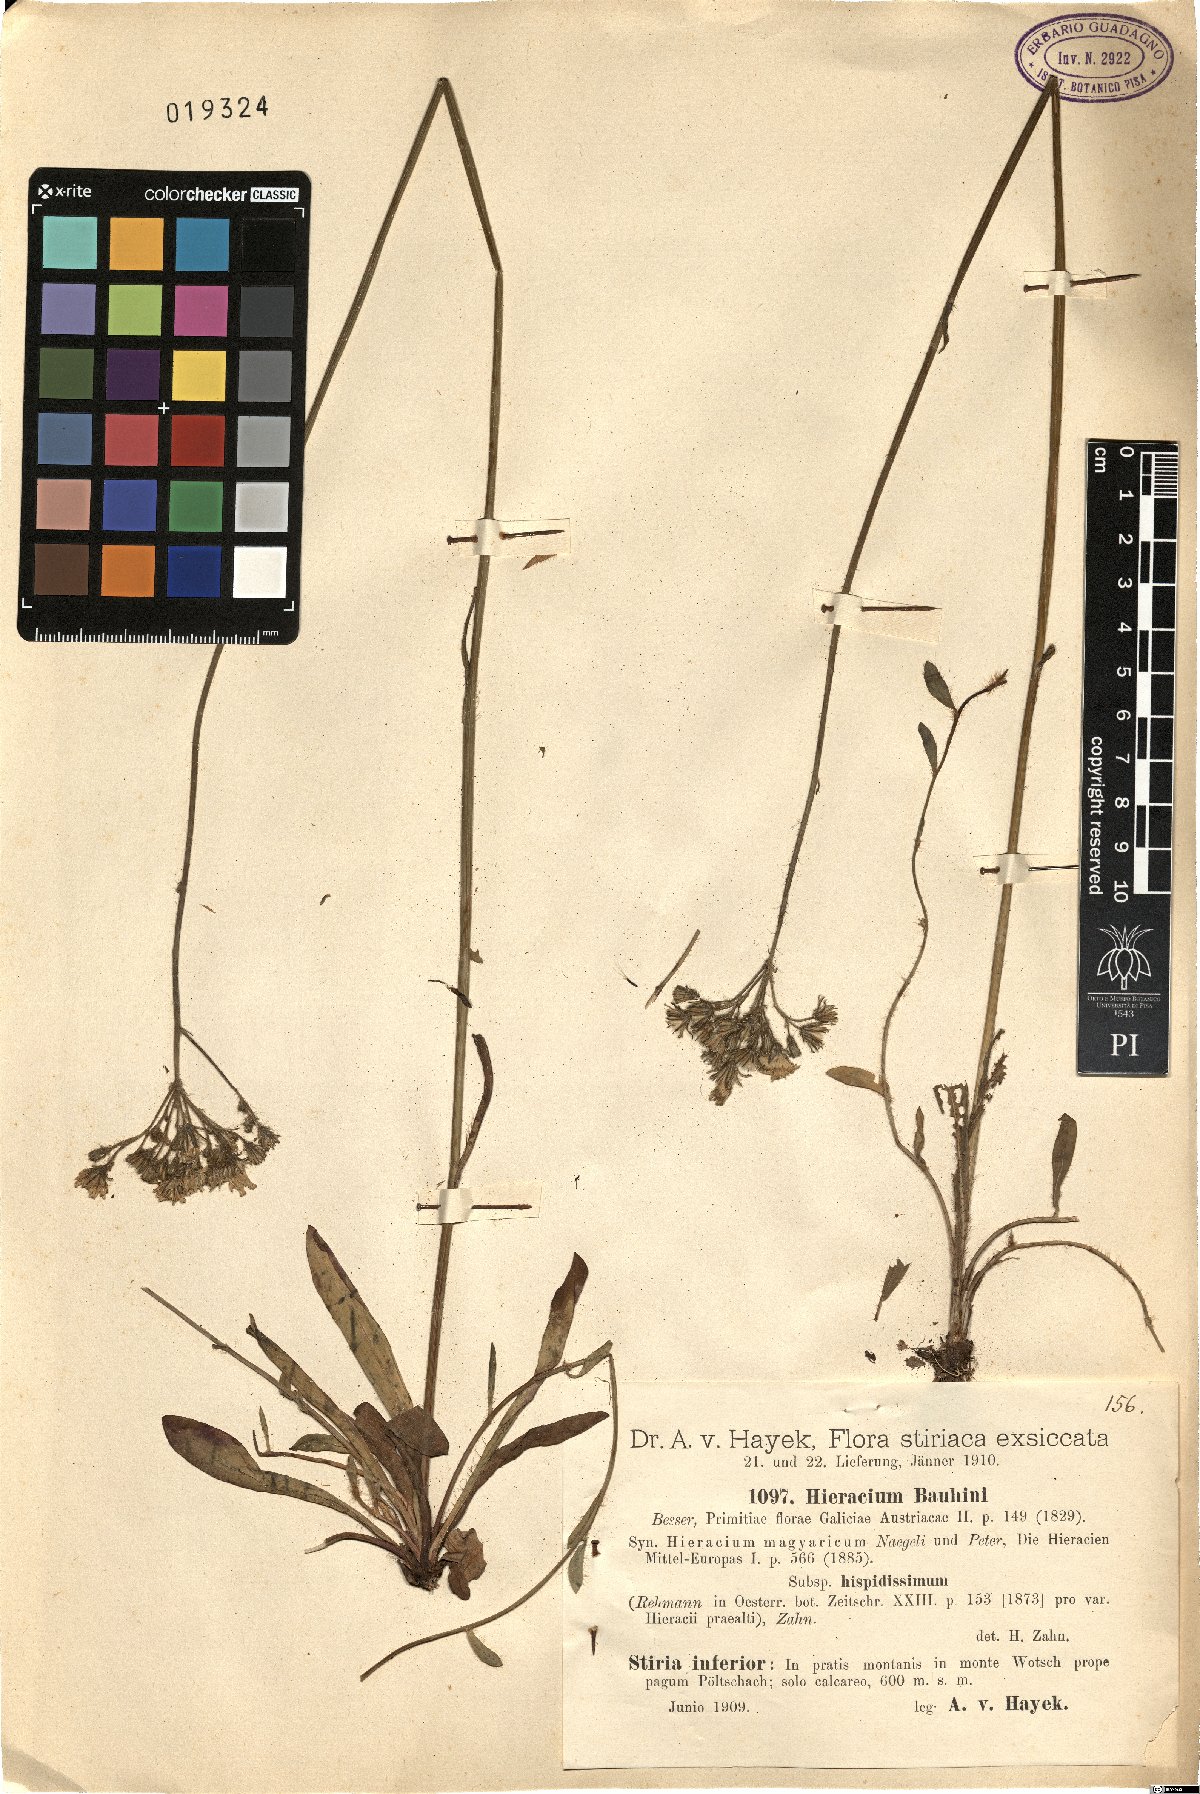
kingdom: Plantae
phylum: Tracheophyta
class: Magnoliopsida
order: Asterales
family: Asteraceae
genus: Pilosella
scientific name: Pilosella bauhini
